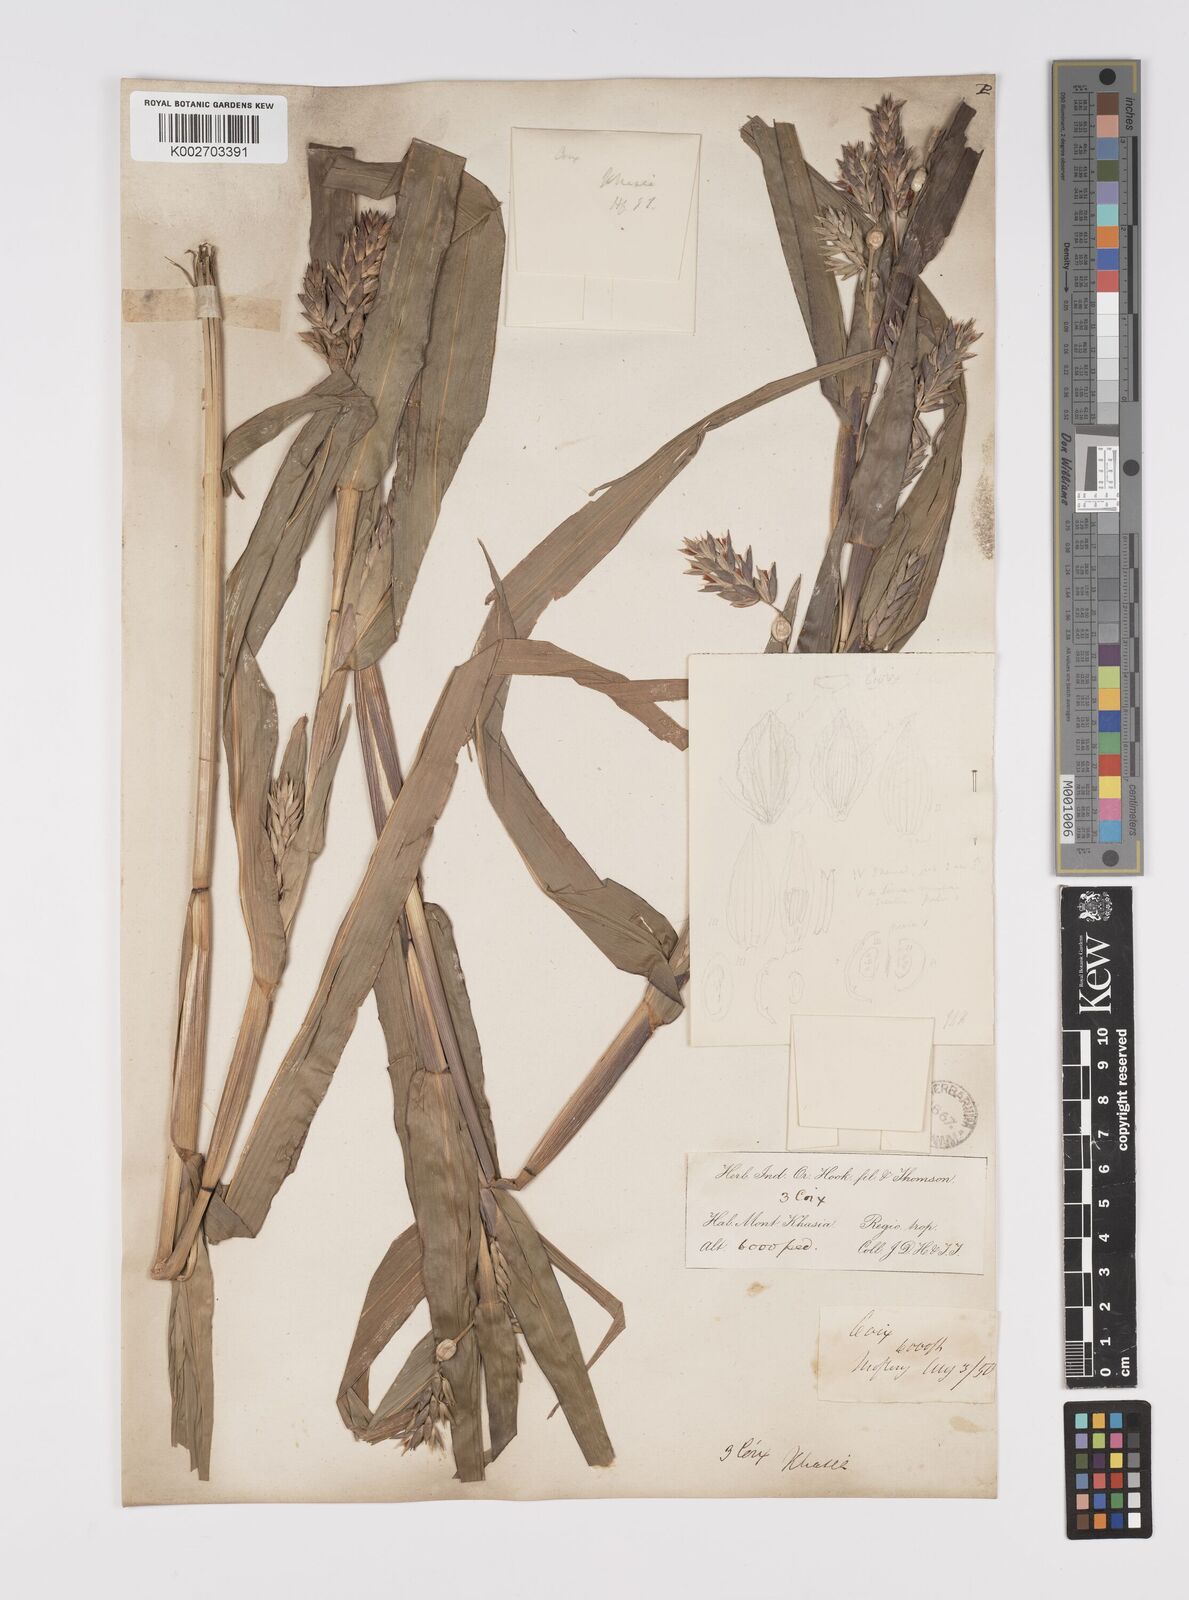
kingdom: Plantae
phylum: Tracheophyta
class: Liliopsida
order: Poales
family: Poaceae
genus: Coix
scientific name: Coix lacryma-jobi
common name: Job's tears
